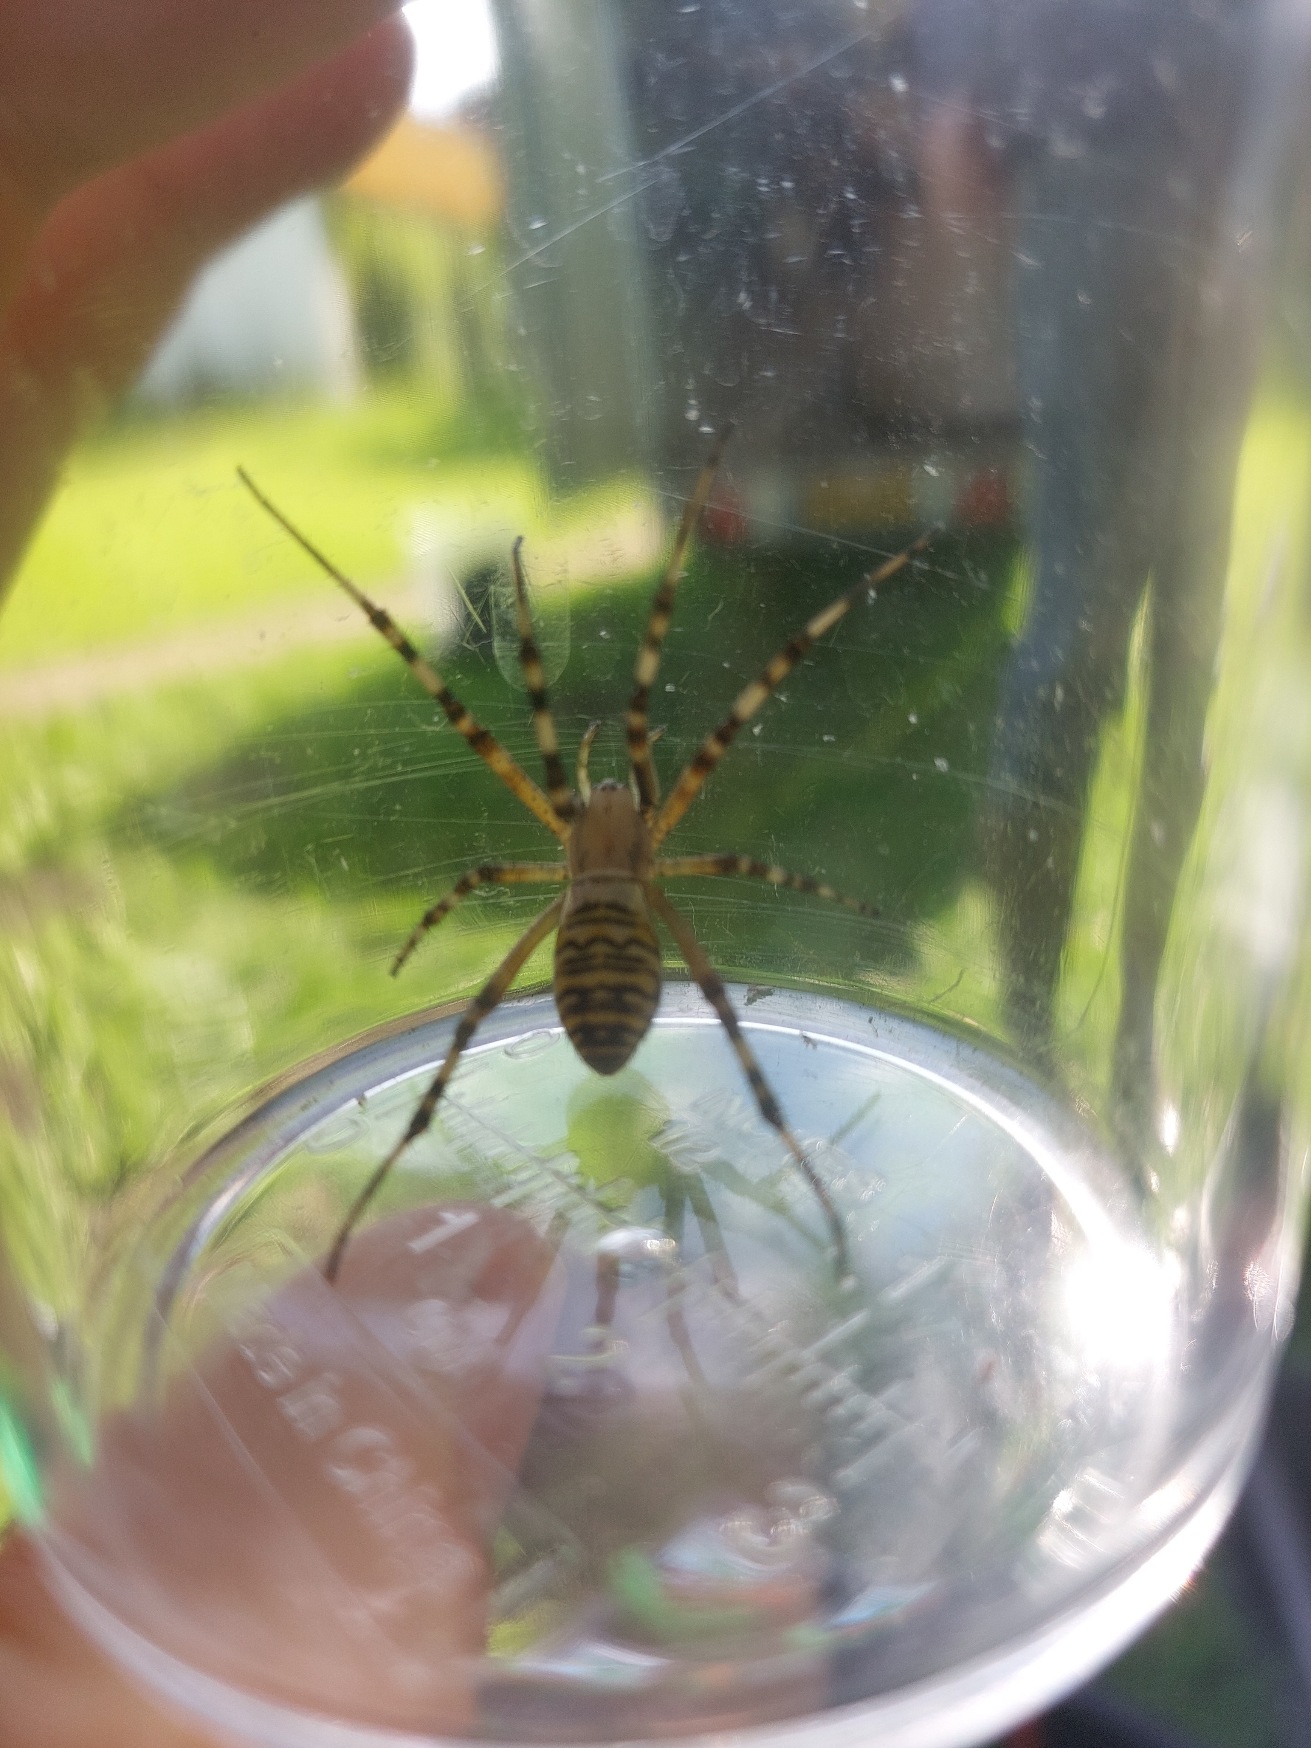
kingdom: Animalia
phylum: Arthropoda
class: Arachnida
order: Araneae
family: Araneidae
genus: Argiope
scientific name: Argiope bruennichi
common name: Hvepseedderkop
